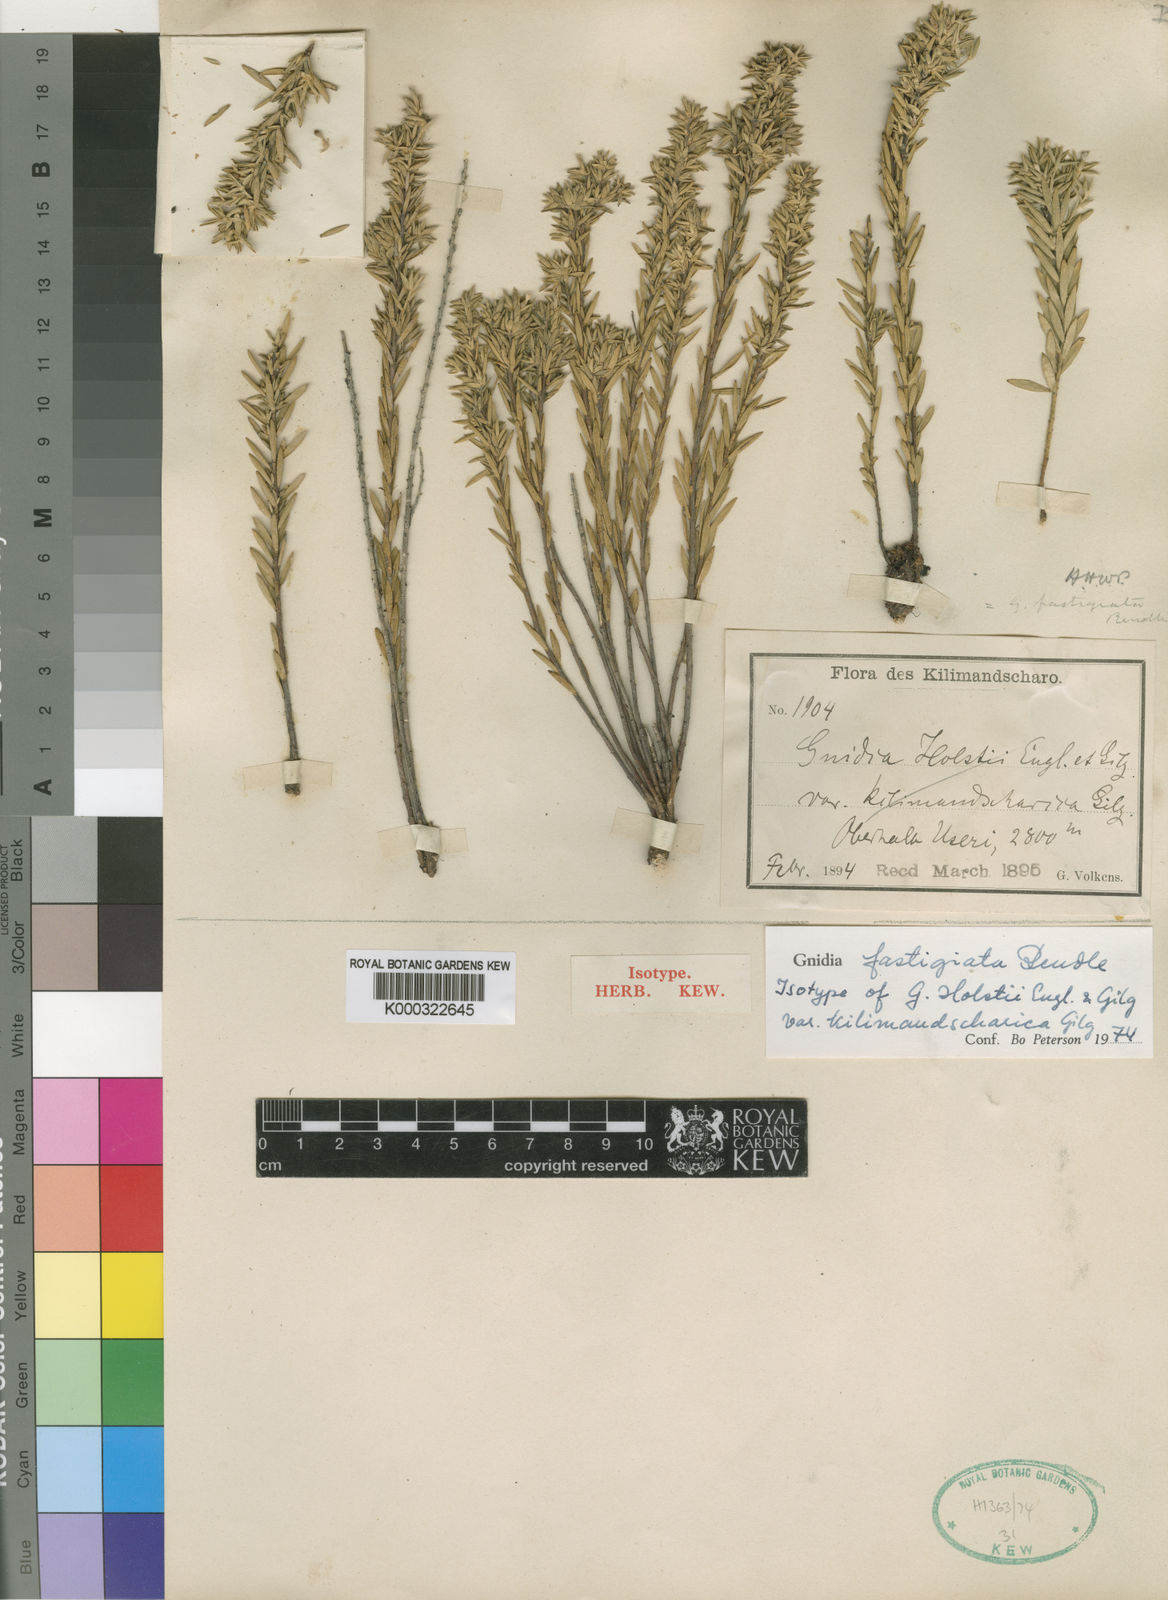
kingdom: Plantae
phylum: Tracheophyta
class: Magnoliopsida
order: Malvales
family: Thymelaeaceae
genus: Gnidia
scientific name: Gnidia fastigiata
